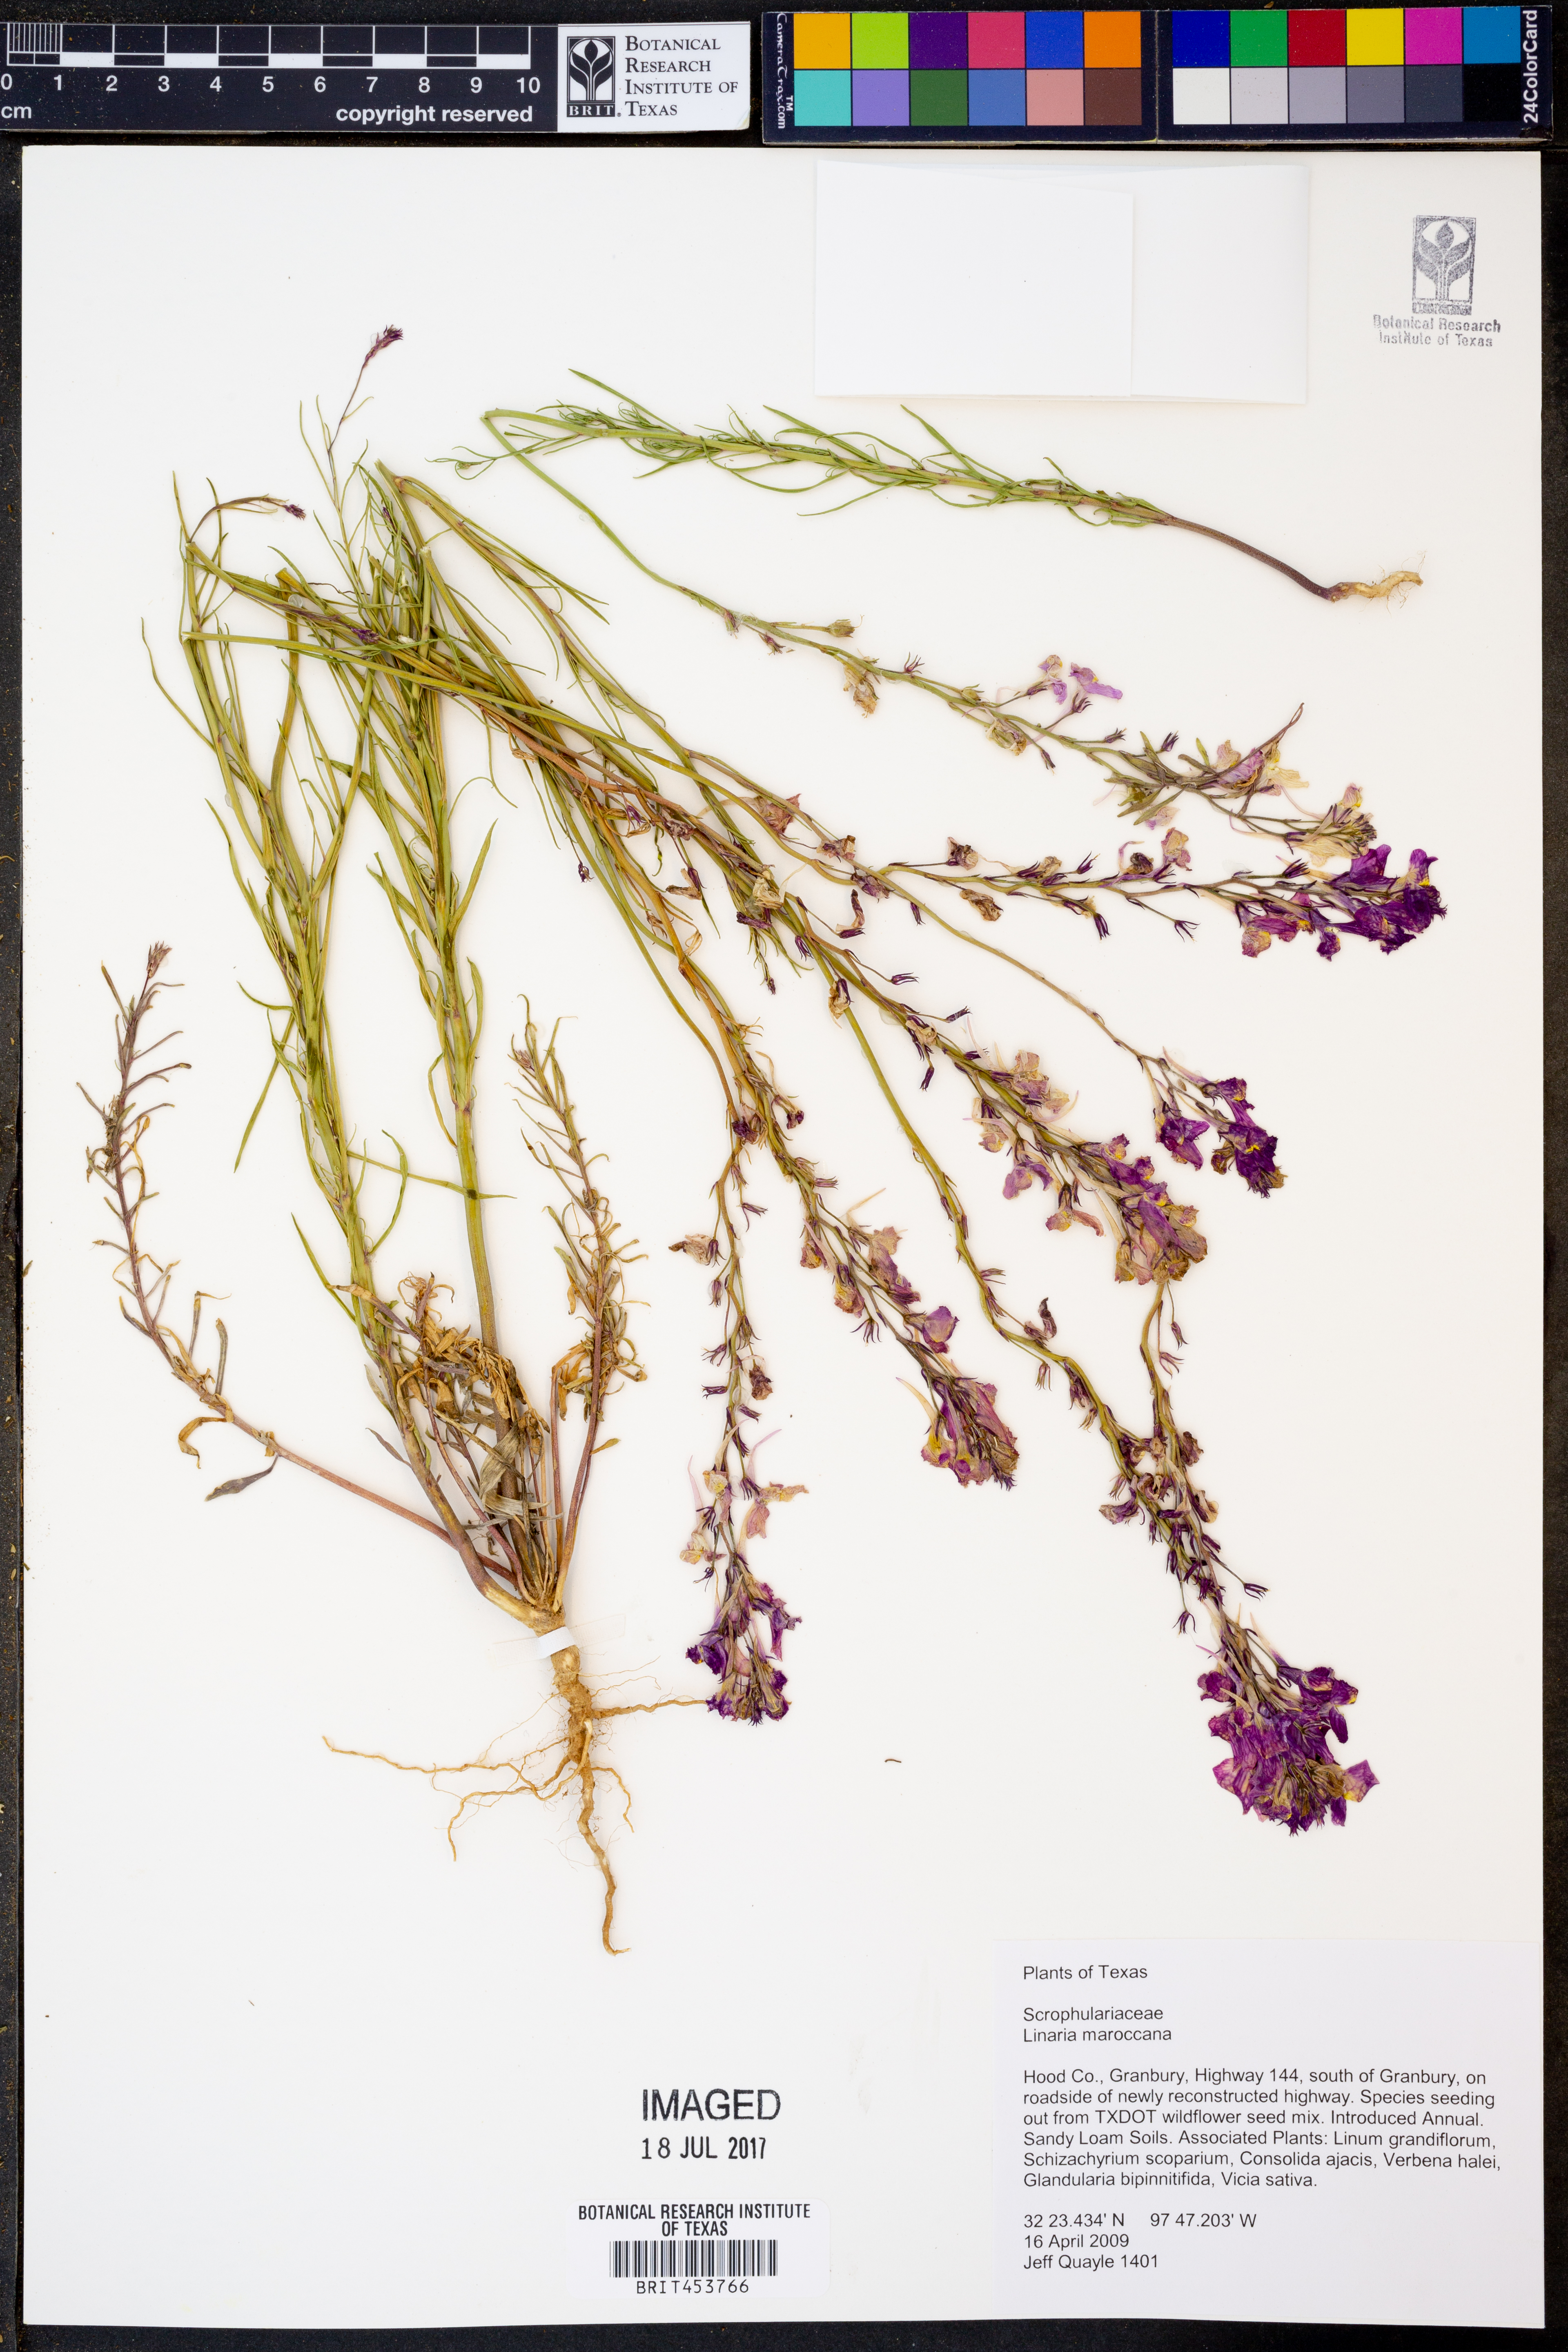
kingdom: Plantae
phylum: Tracheophyta
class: Magnoliopsida
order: Lamiales
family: Plantaginaceae
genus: Linaria
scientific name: Linaria maroccana
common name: Moroccan toadflax
